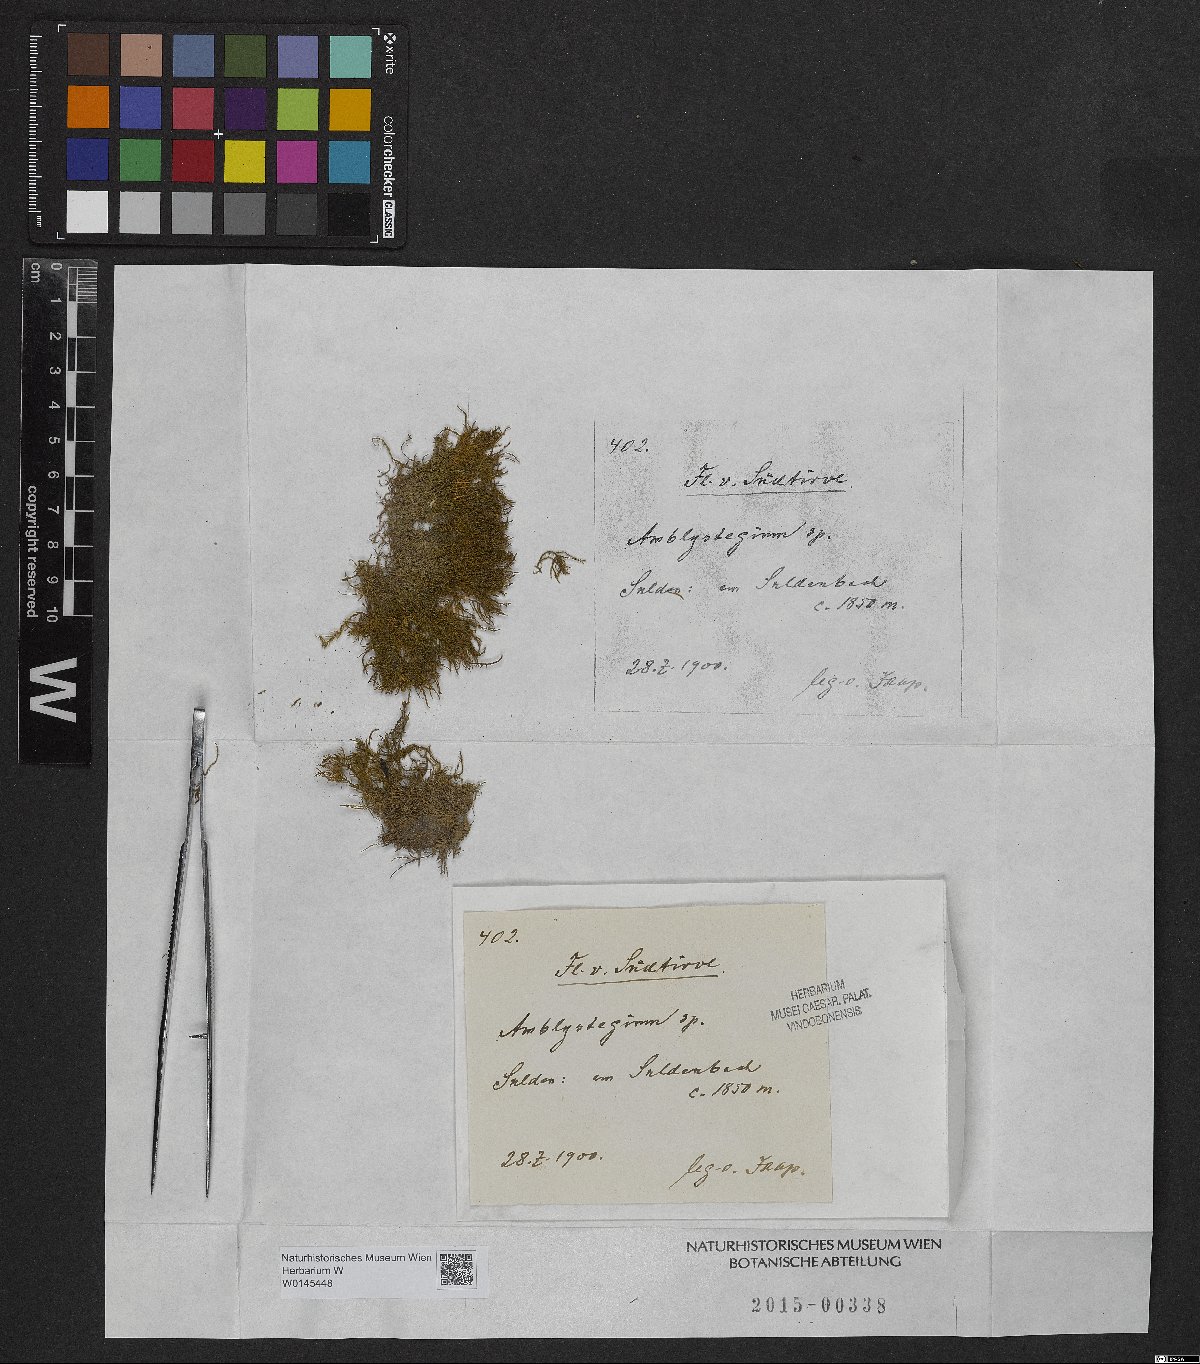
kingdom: Plantae
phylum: Bryophyta
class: Bryopsida
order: Hypnales
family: Amblystegiaceae
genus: Amblystegium
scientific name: Amblystegium
